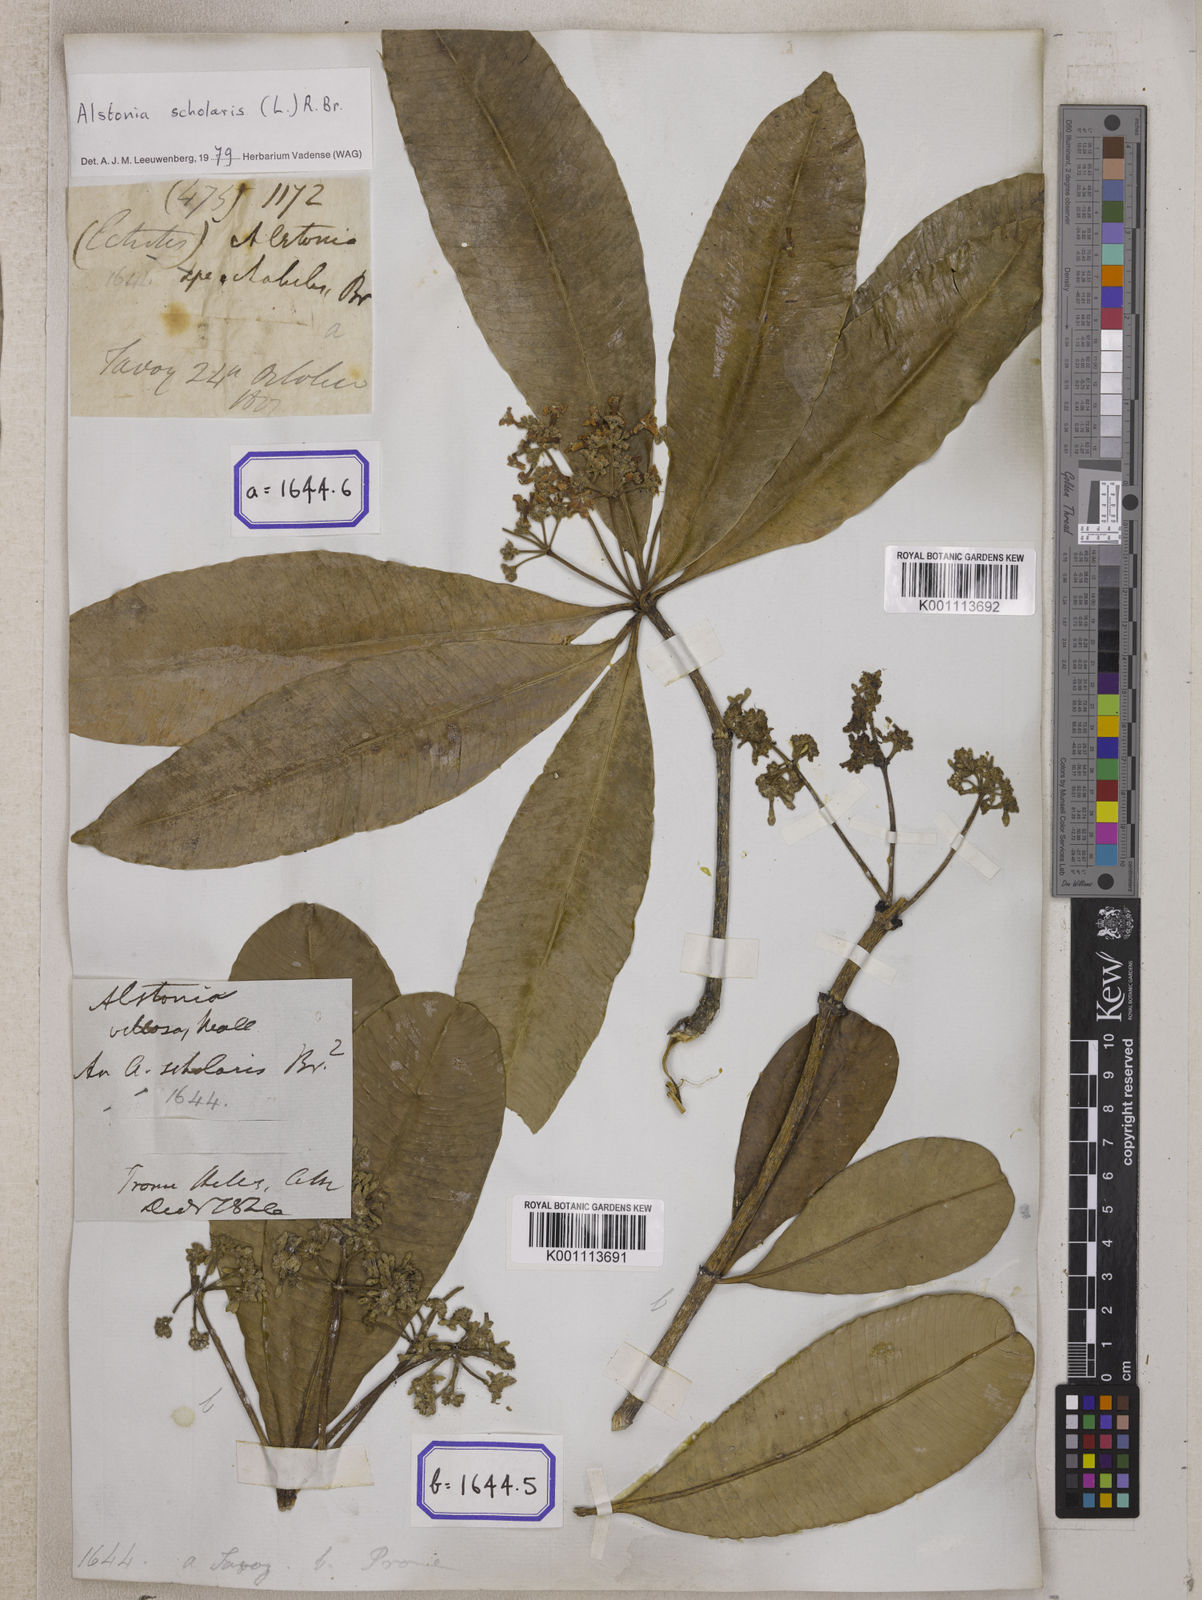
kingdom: Plantae
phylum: Tracheophyta
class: Magnoliopsida
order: Gentianales
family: Apocynaceae
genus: Alstonia
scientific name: Alstonia scholaris
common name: White cheesewood
